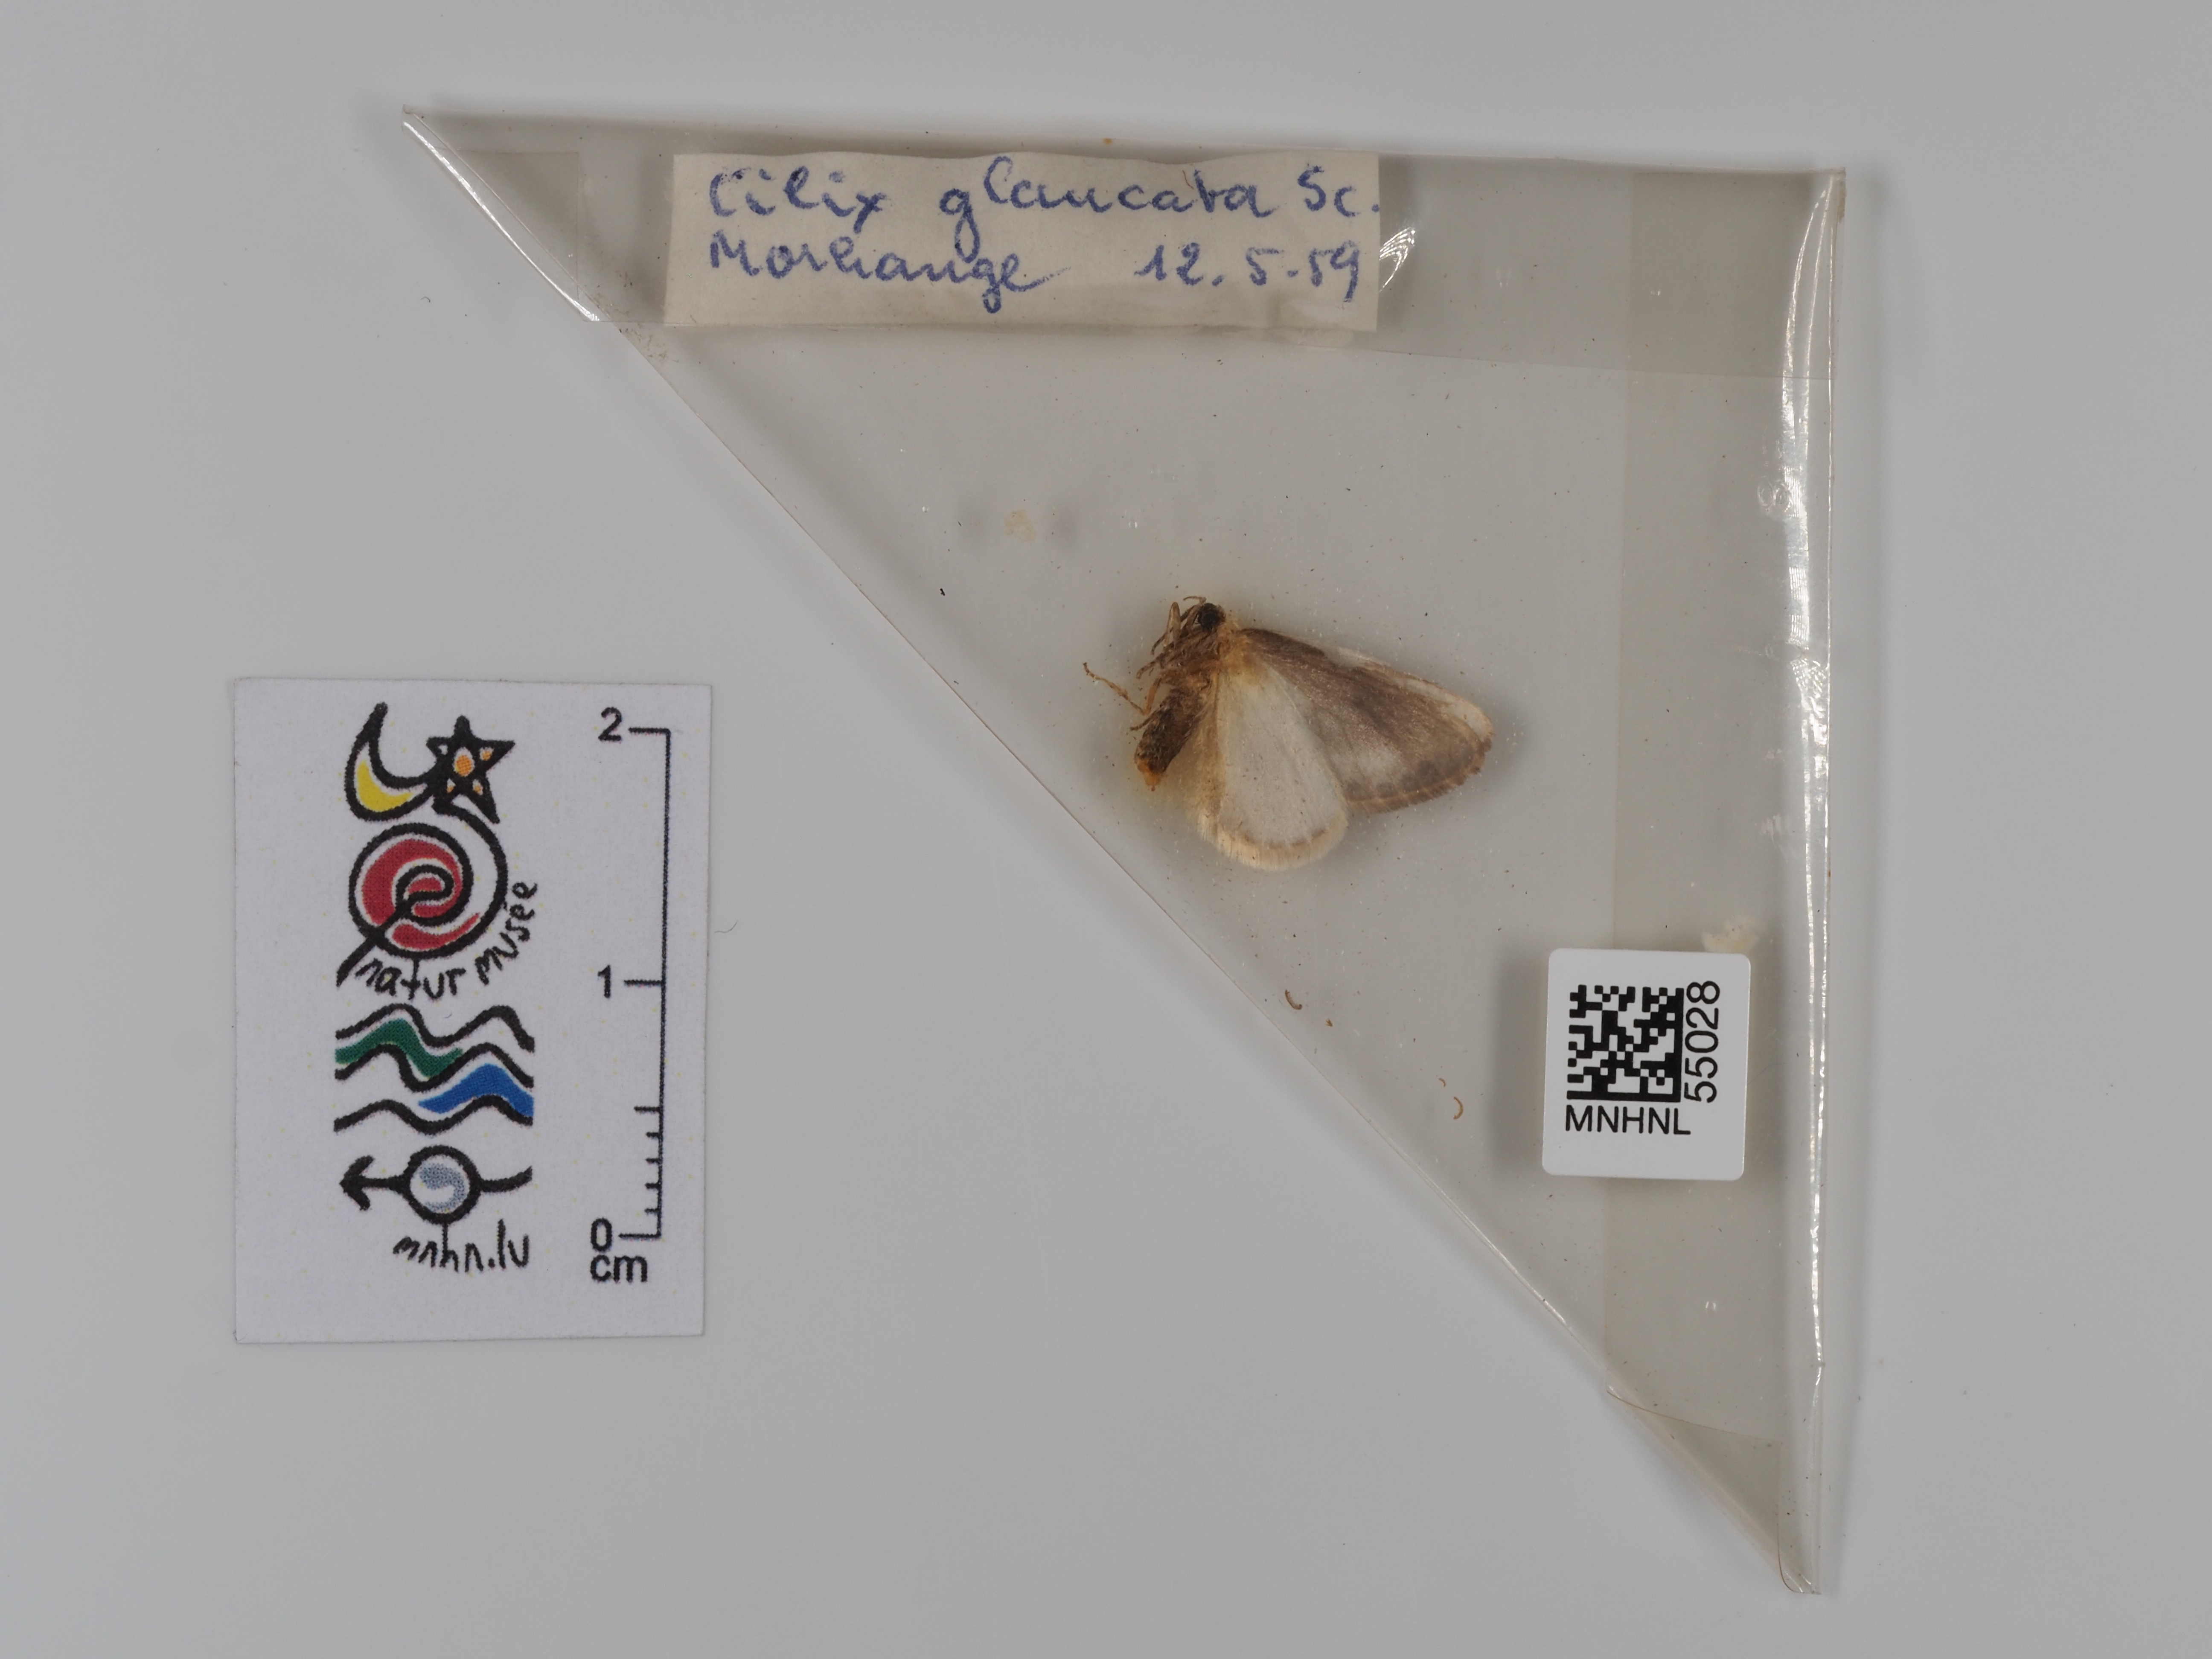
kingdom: Animalia
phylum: Arthropoda
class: Insecta
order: Lepidoptera
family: Drepanidae
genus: Cilix
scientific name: Cilix glaucata
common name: Chinese character
